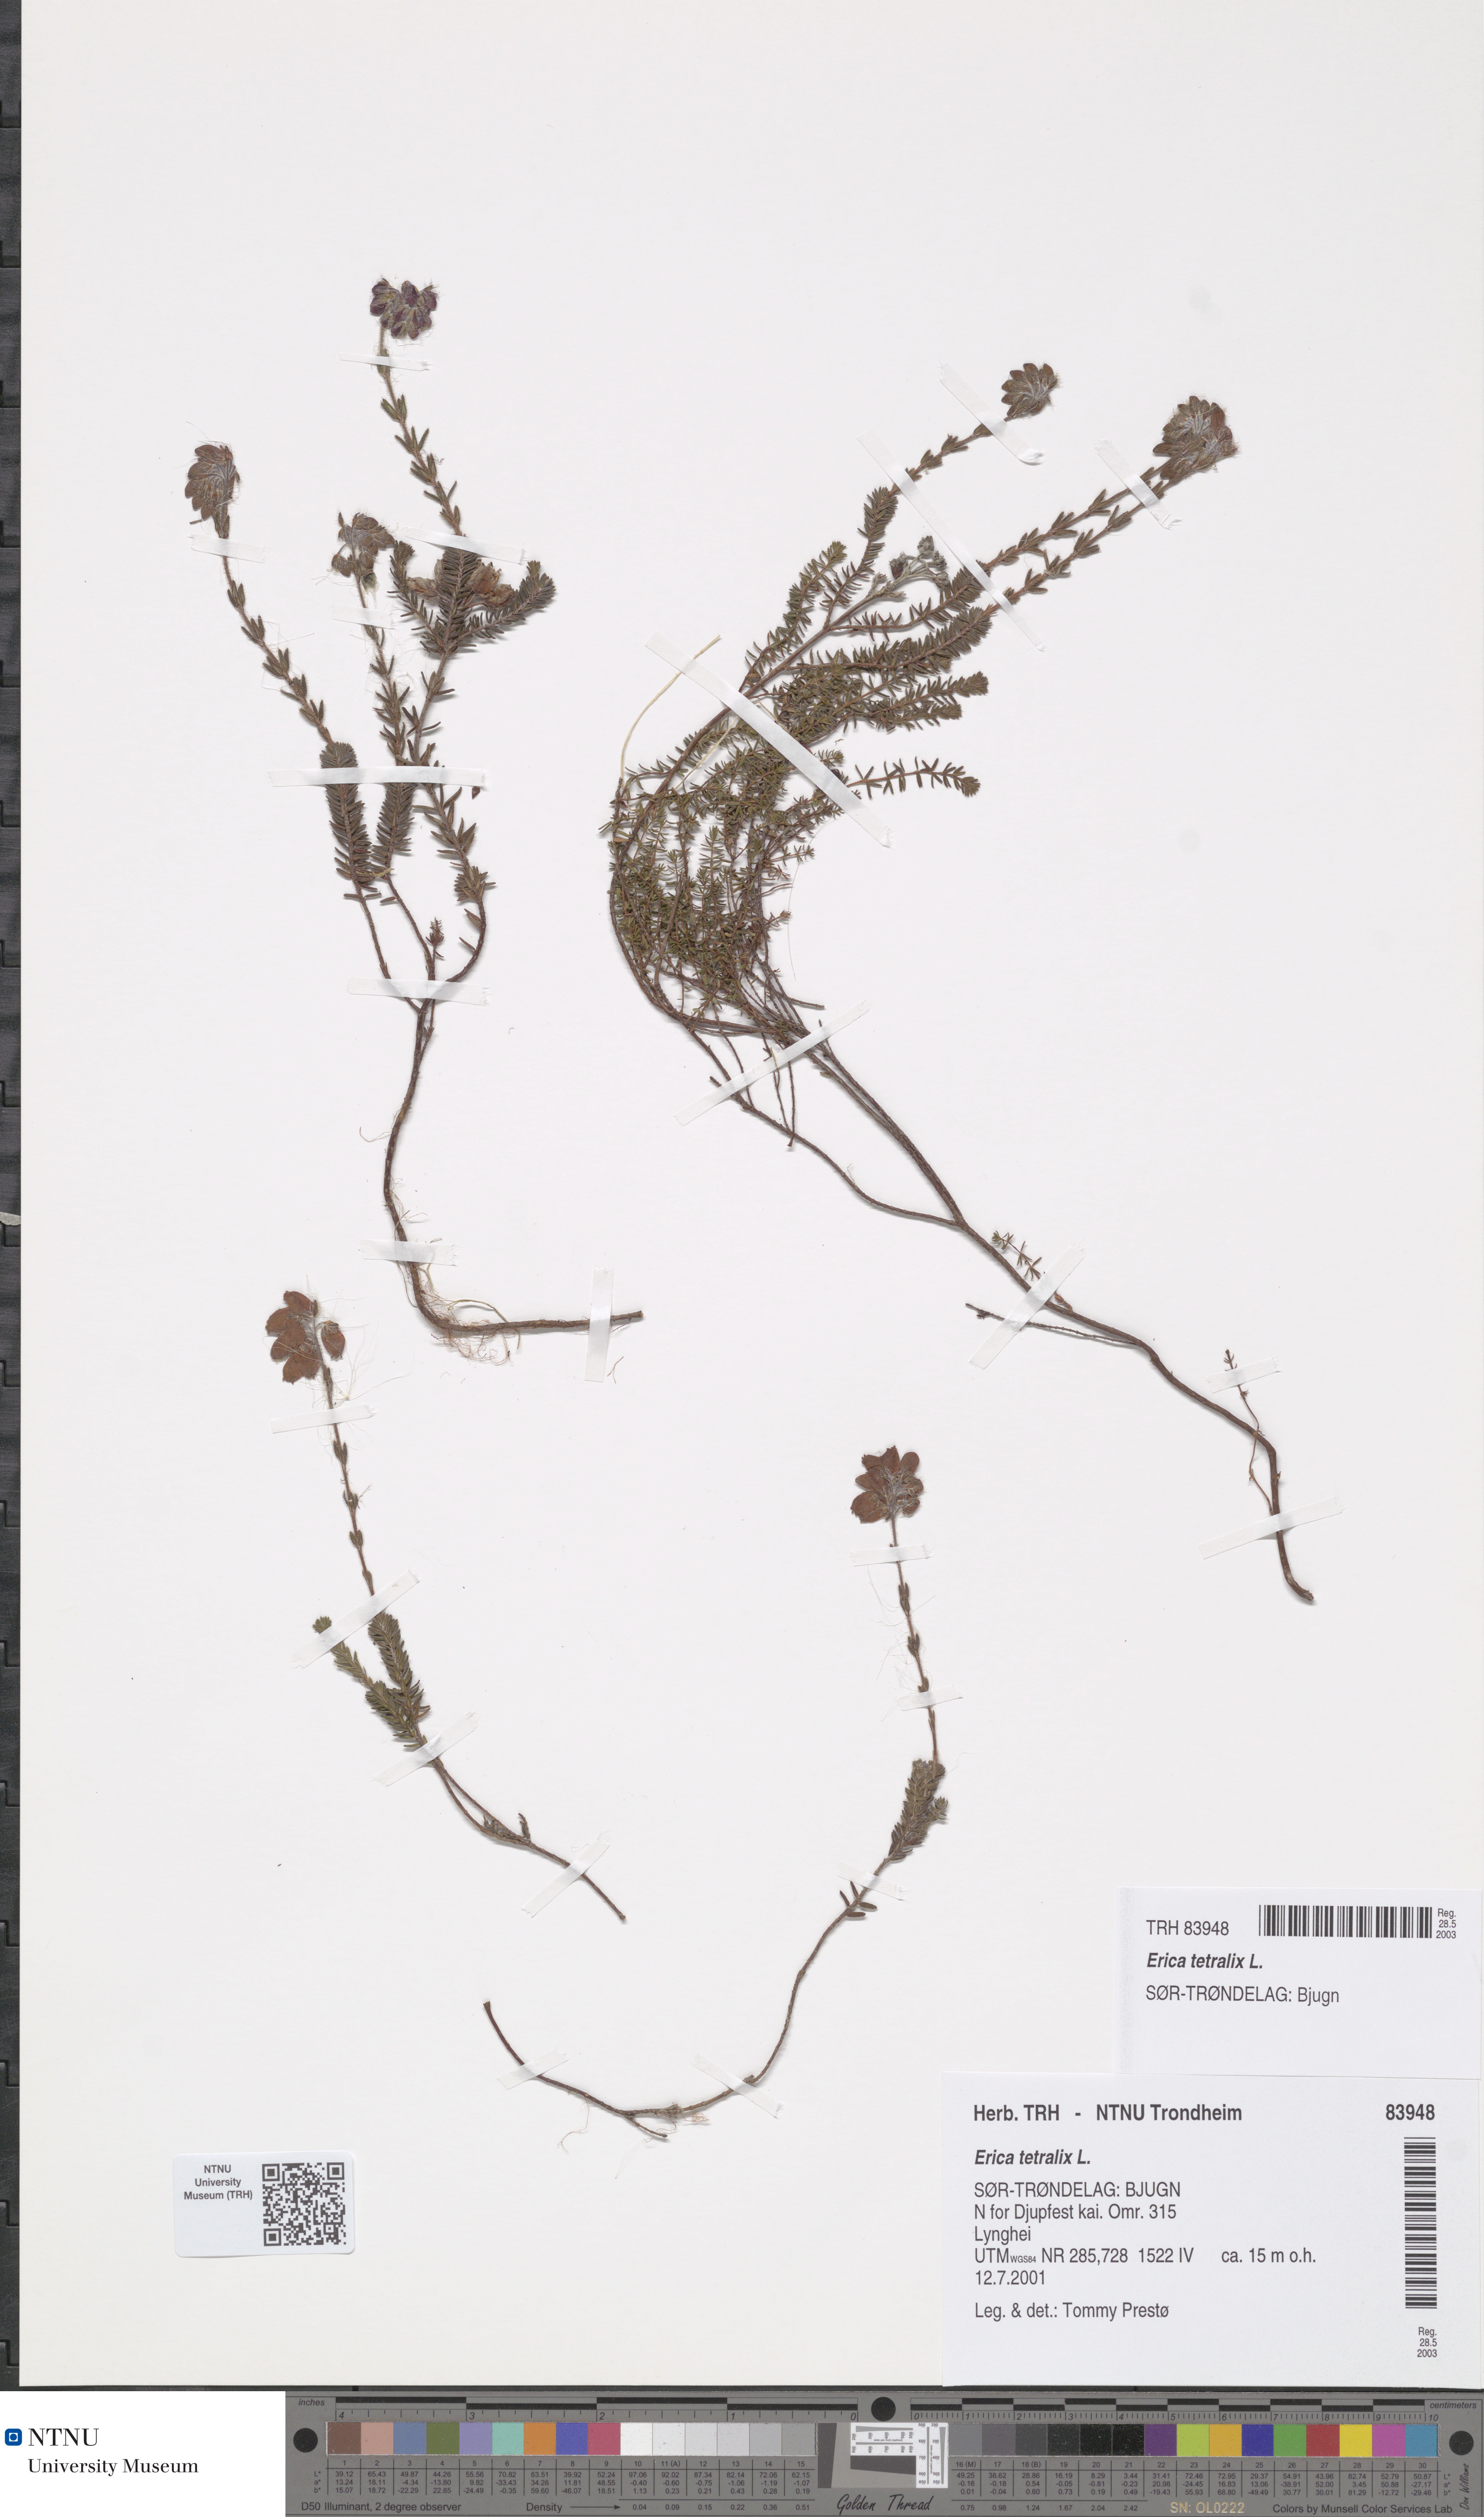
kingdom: Plantae
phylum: Tracheophyta
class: Magnoliopsida
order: Ericales
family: Ericaceae
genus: Erica
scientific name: Erica tetralix
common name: Cross-leaved heath
